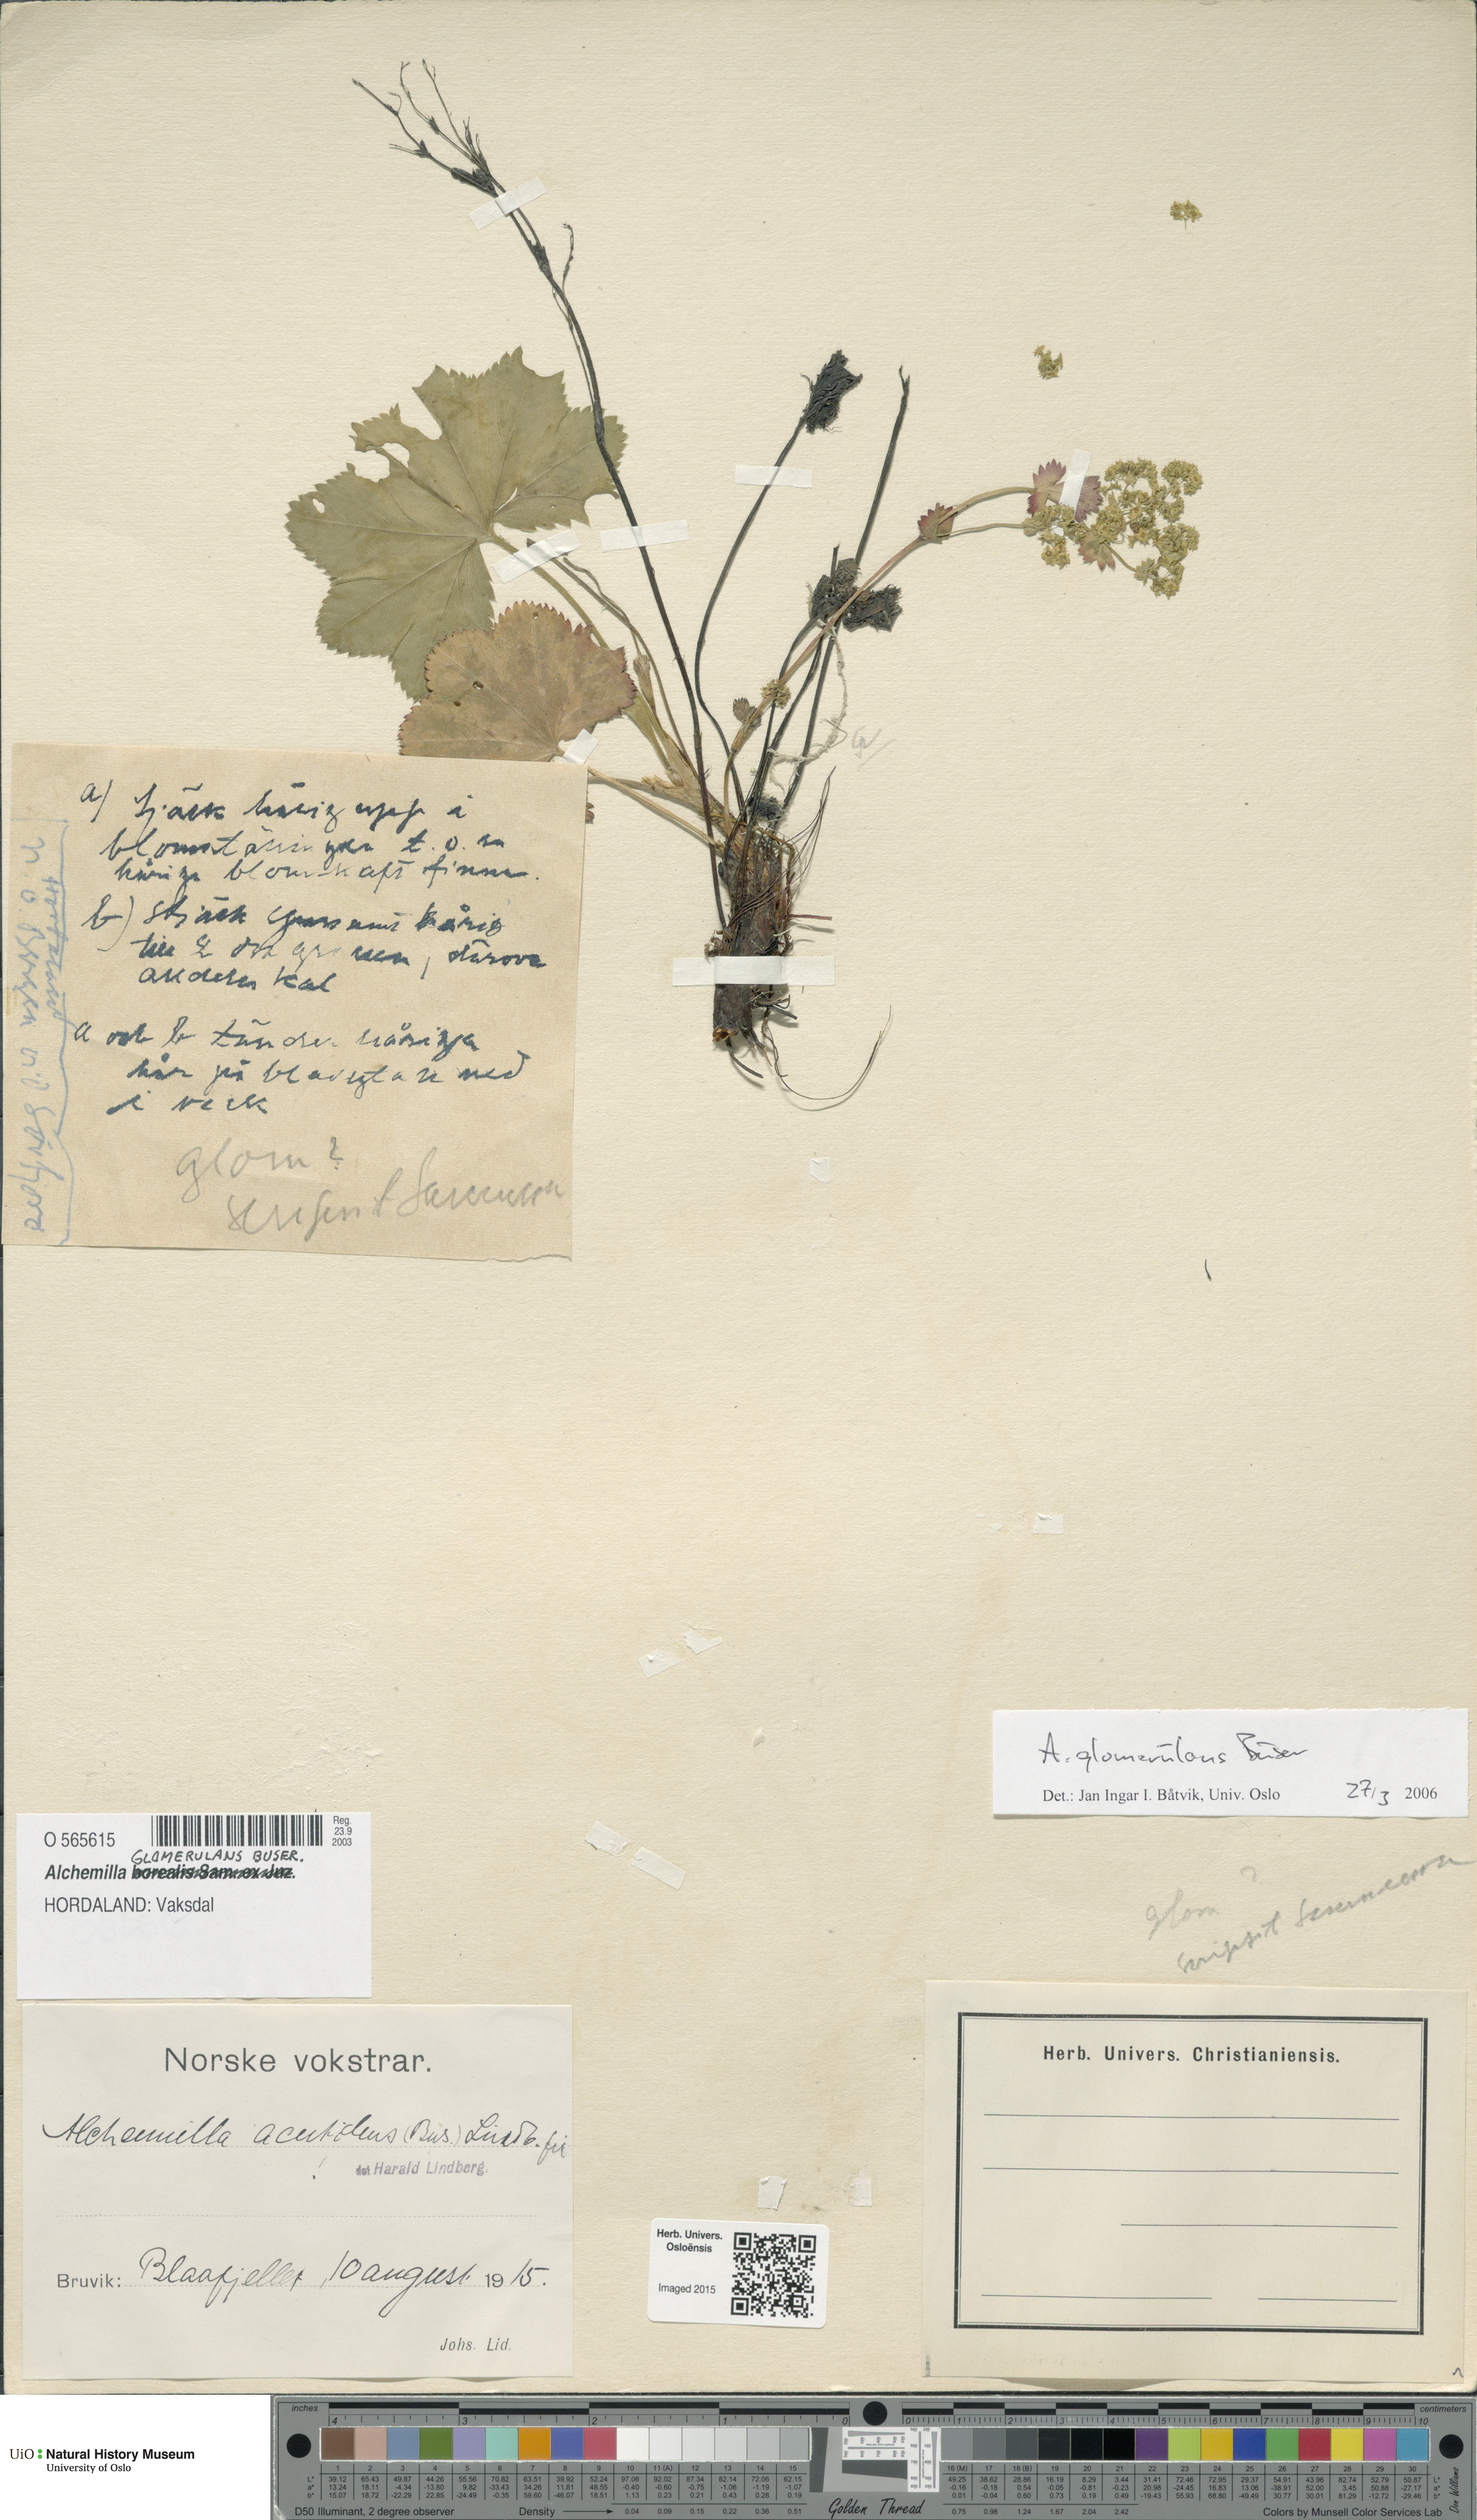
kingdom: Plantae
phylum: Tracheophyta
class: Magnoliopsida
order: Rosales
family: Rosaceae
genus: Alchemilla
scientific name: Alchemilla glomerulans
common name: Clustered lady's mantle
